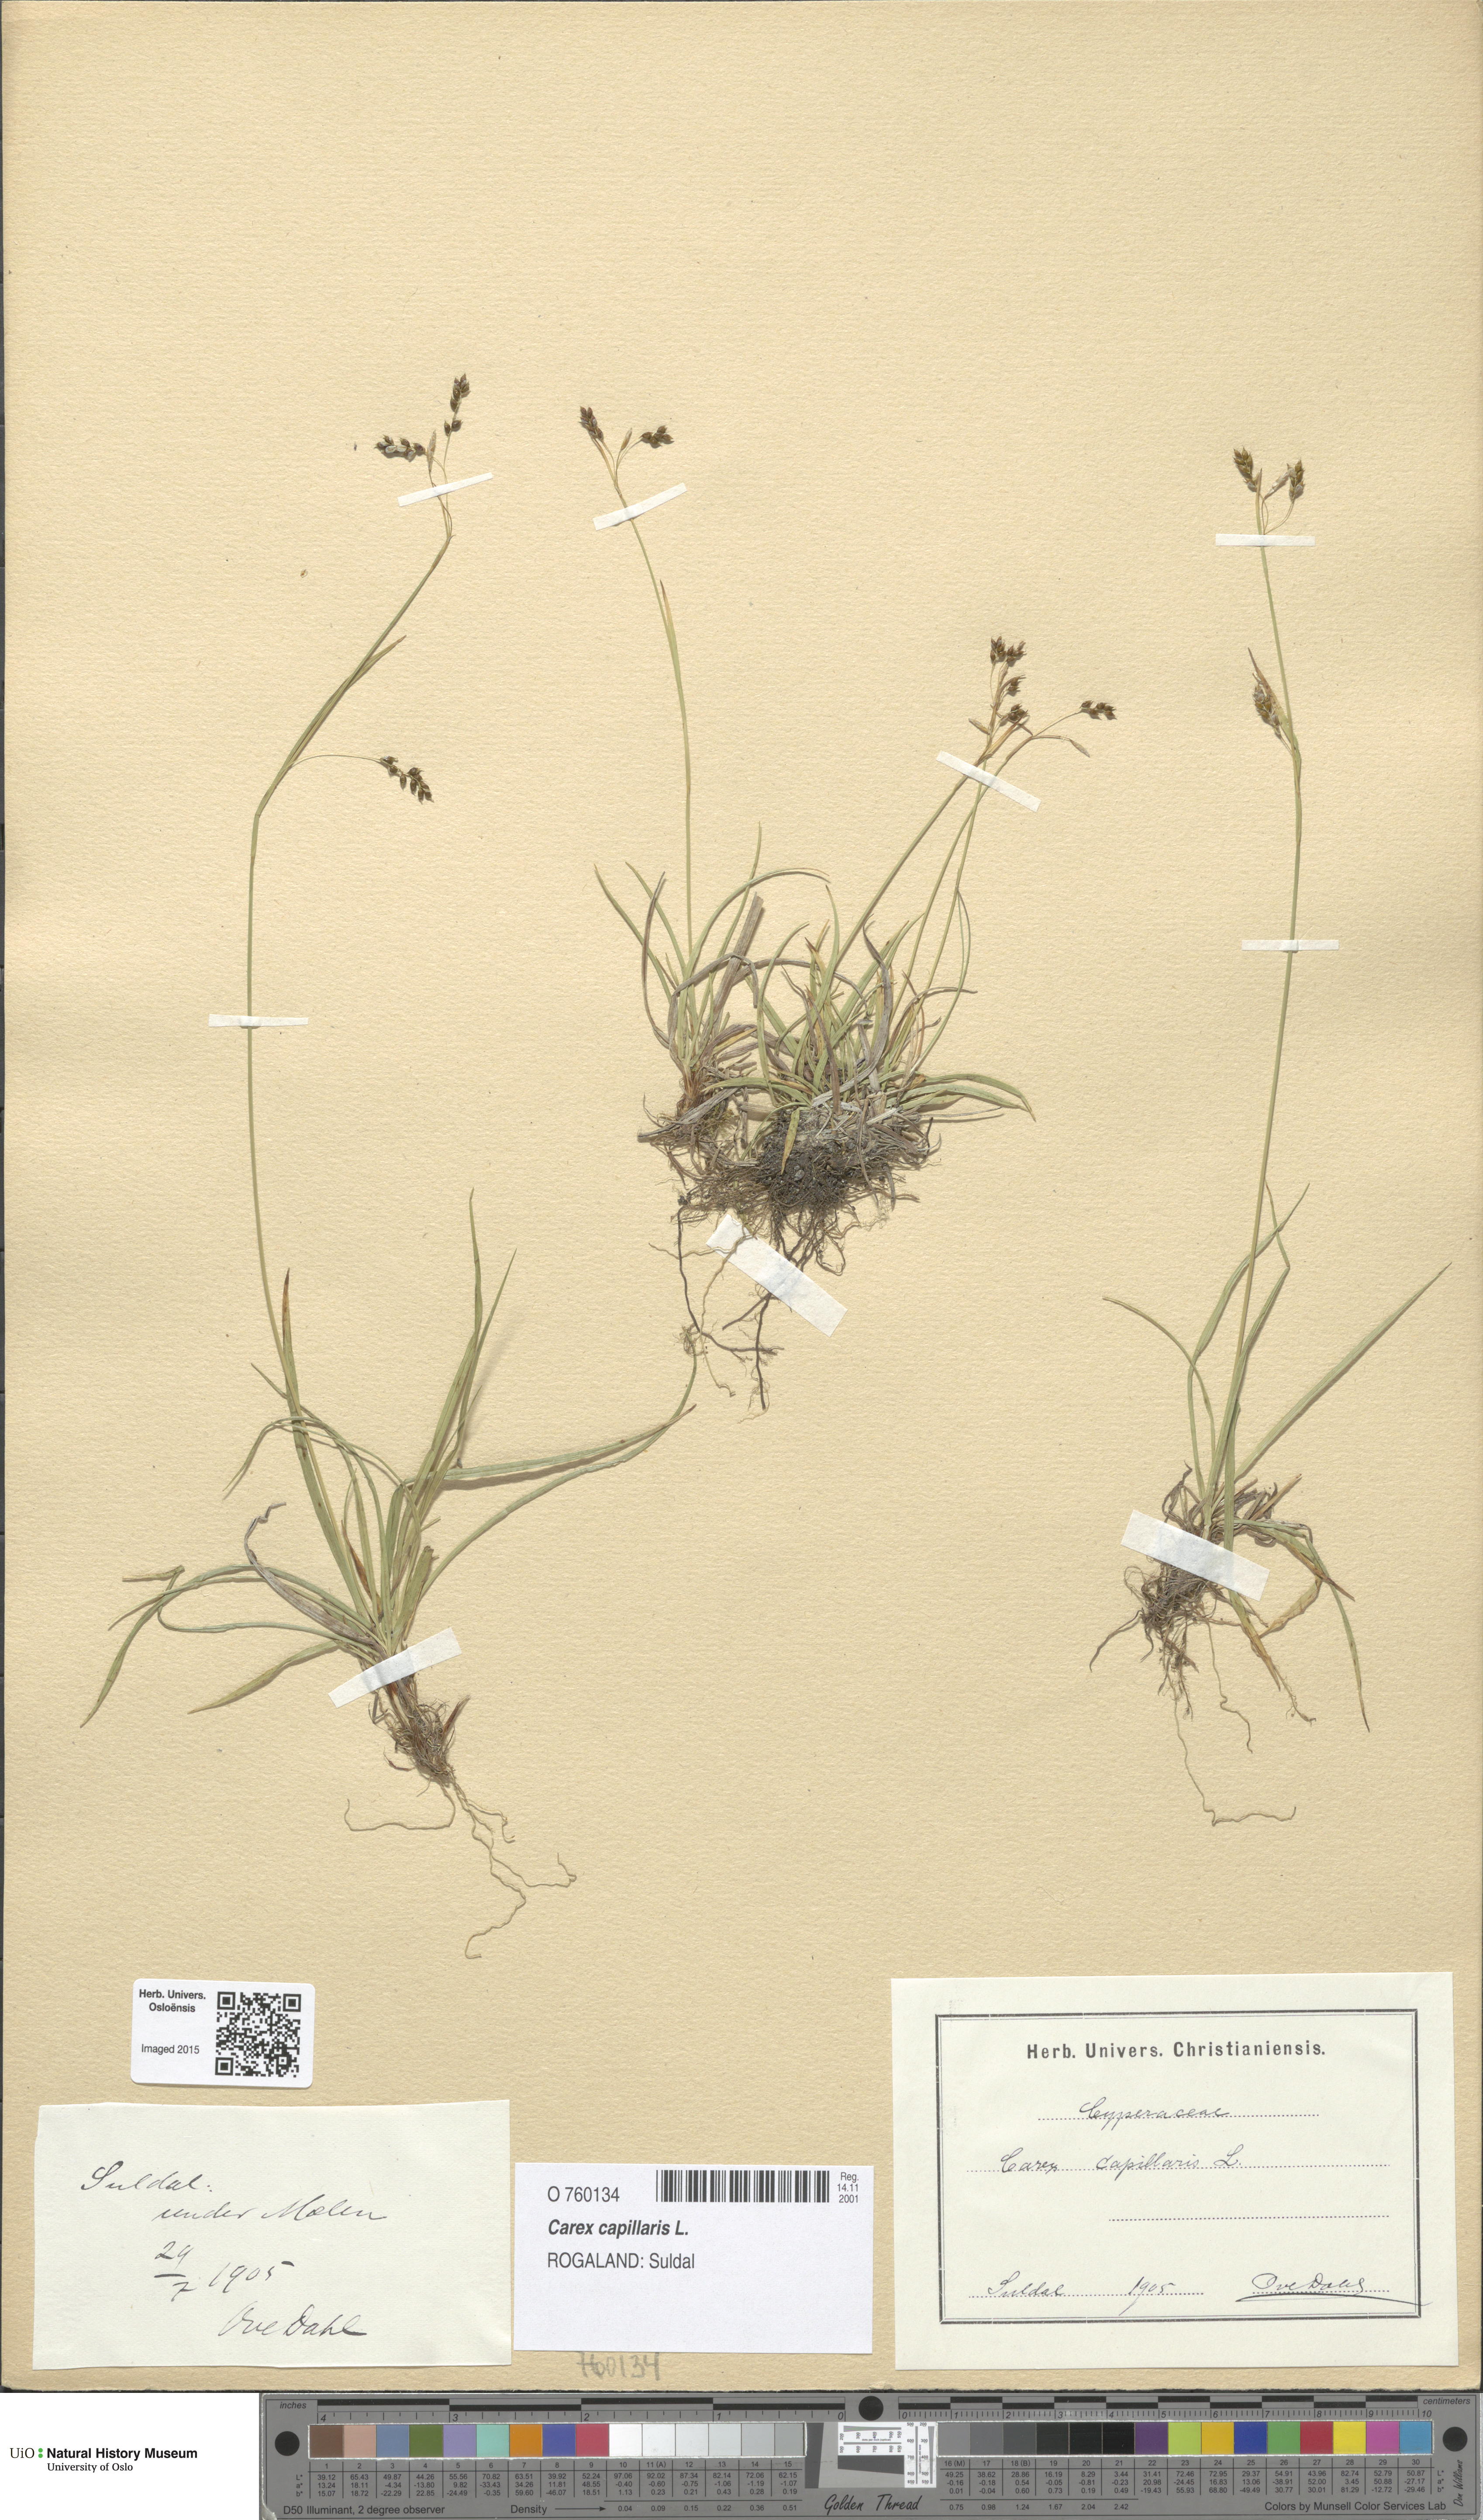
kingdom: Plantae
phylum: Tracheophyta
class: Liliopsida
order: Poales
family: Cyperaceae
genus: Carex
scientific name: Carex capillaris
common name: Hair sedge
